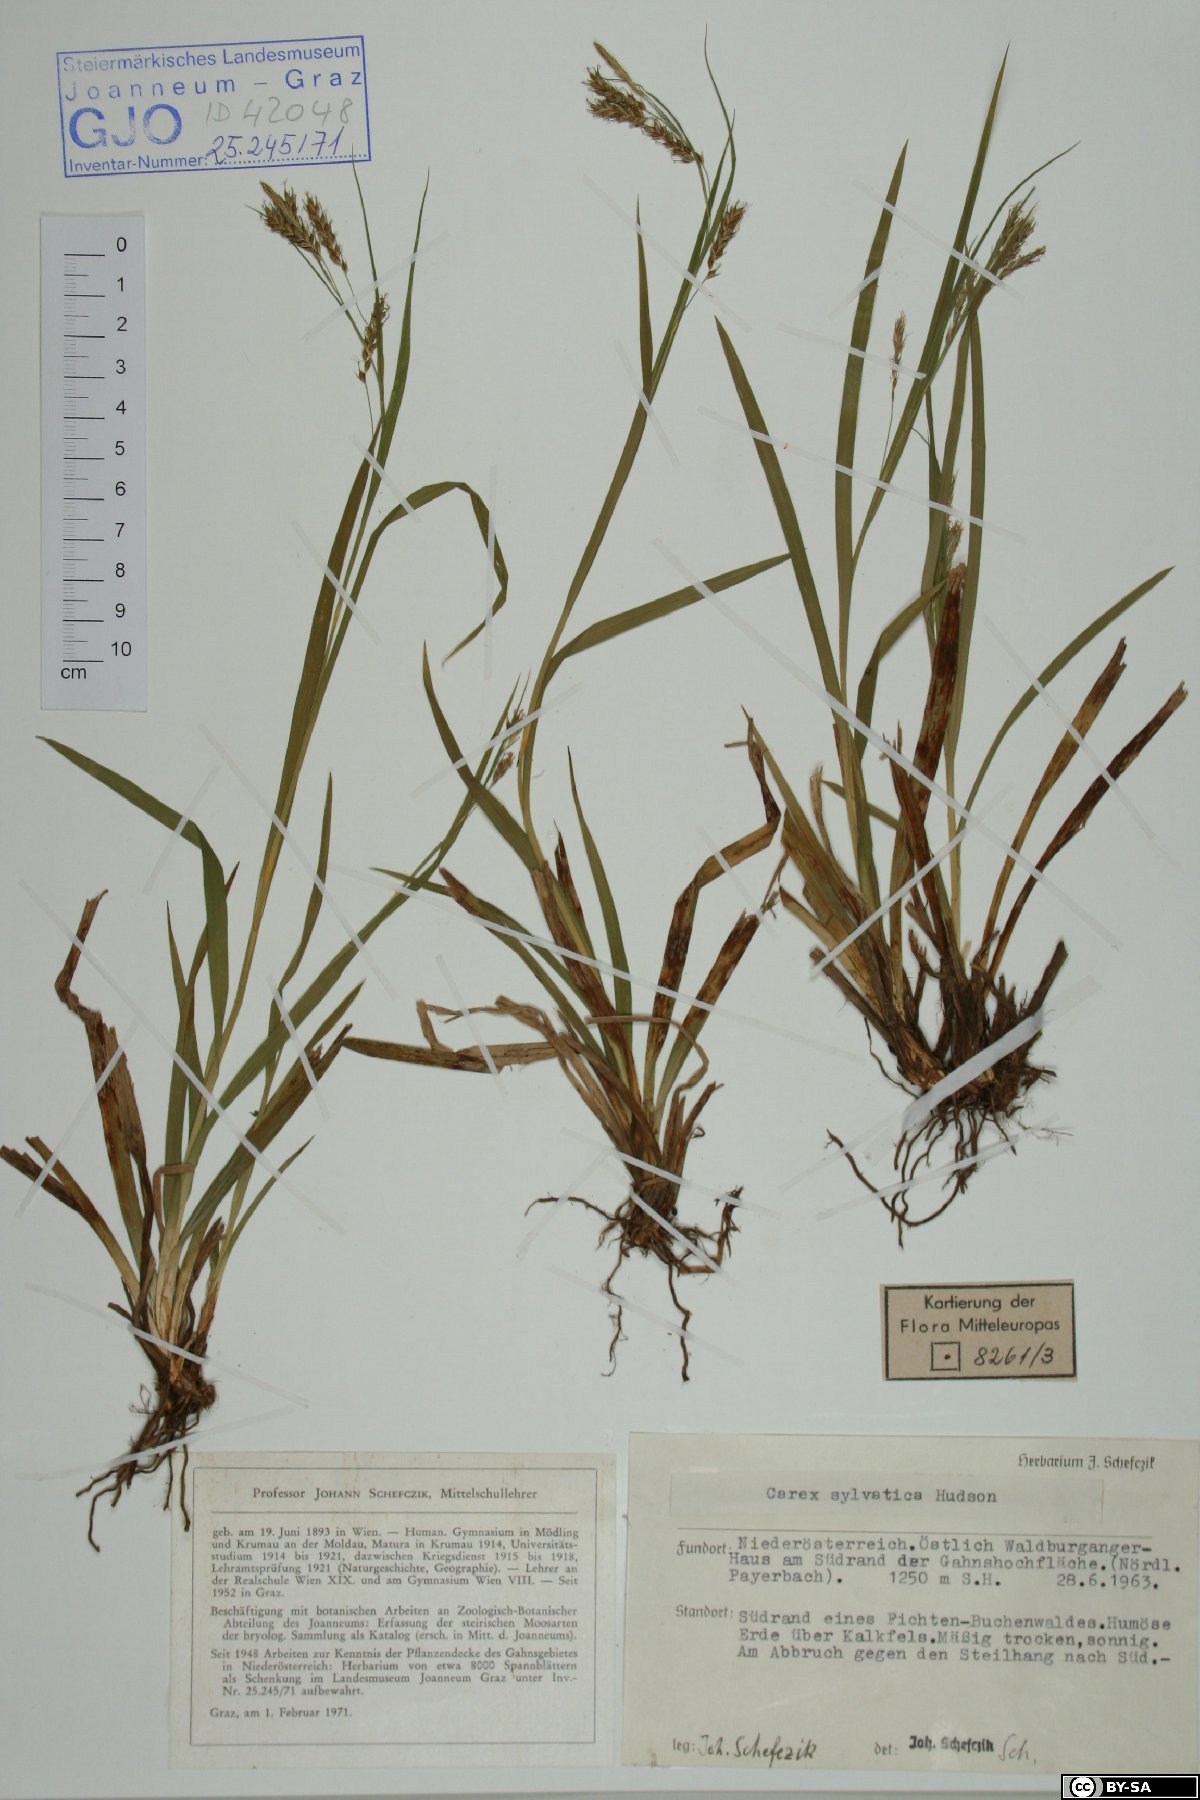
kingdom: Plantae
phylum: Tracheophyta
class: Liliopsida
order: Poales
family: Cyperaceae
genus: Carex
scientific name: Carex sylvatica
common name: Wood-sedge
